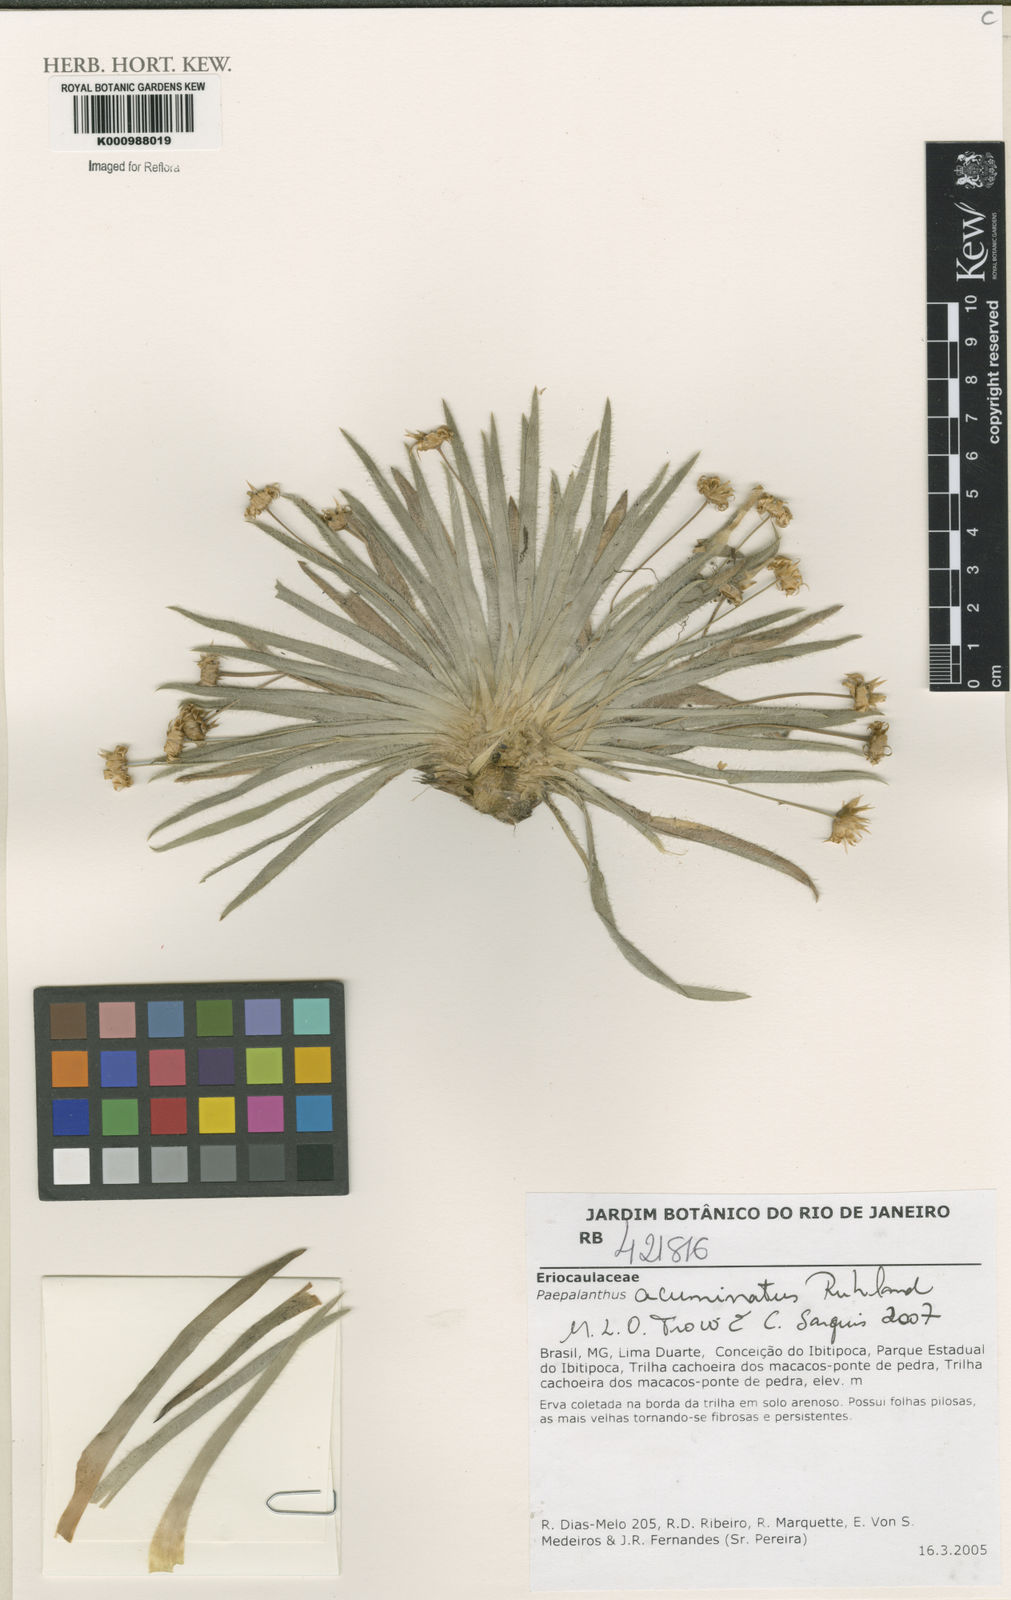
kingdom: Plantae
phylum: Tracheophyta
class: Liliopsida
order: Poales
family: Eriocaulaceae
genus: Paepalanthus
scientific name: Paepalanthus acuminatus
